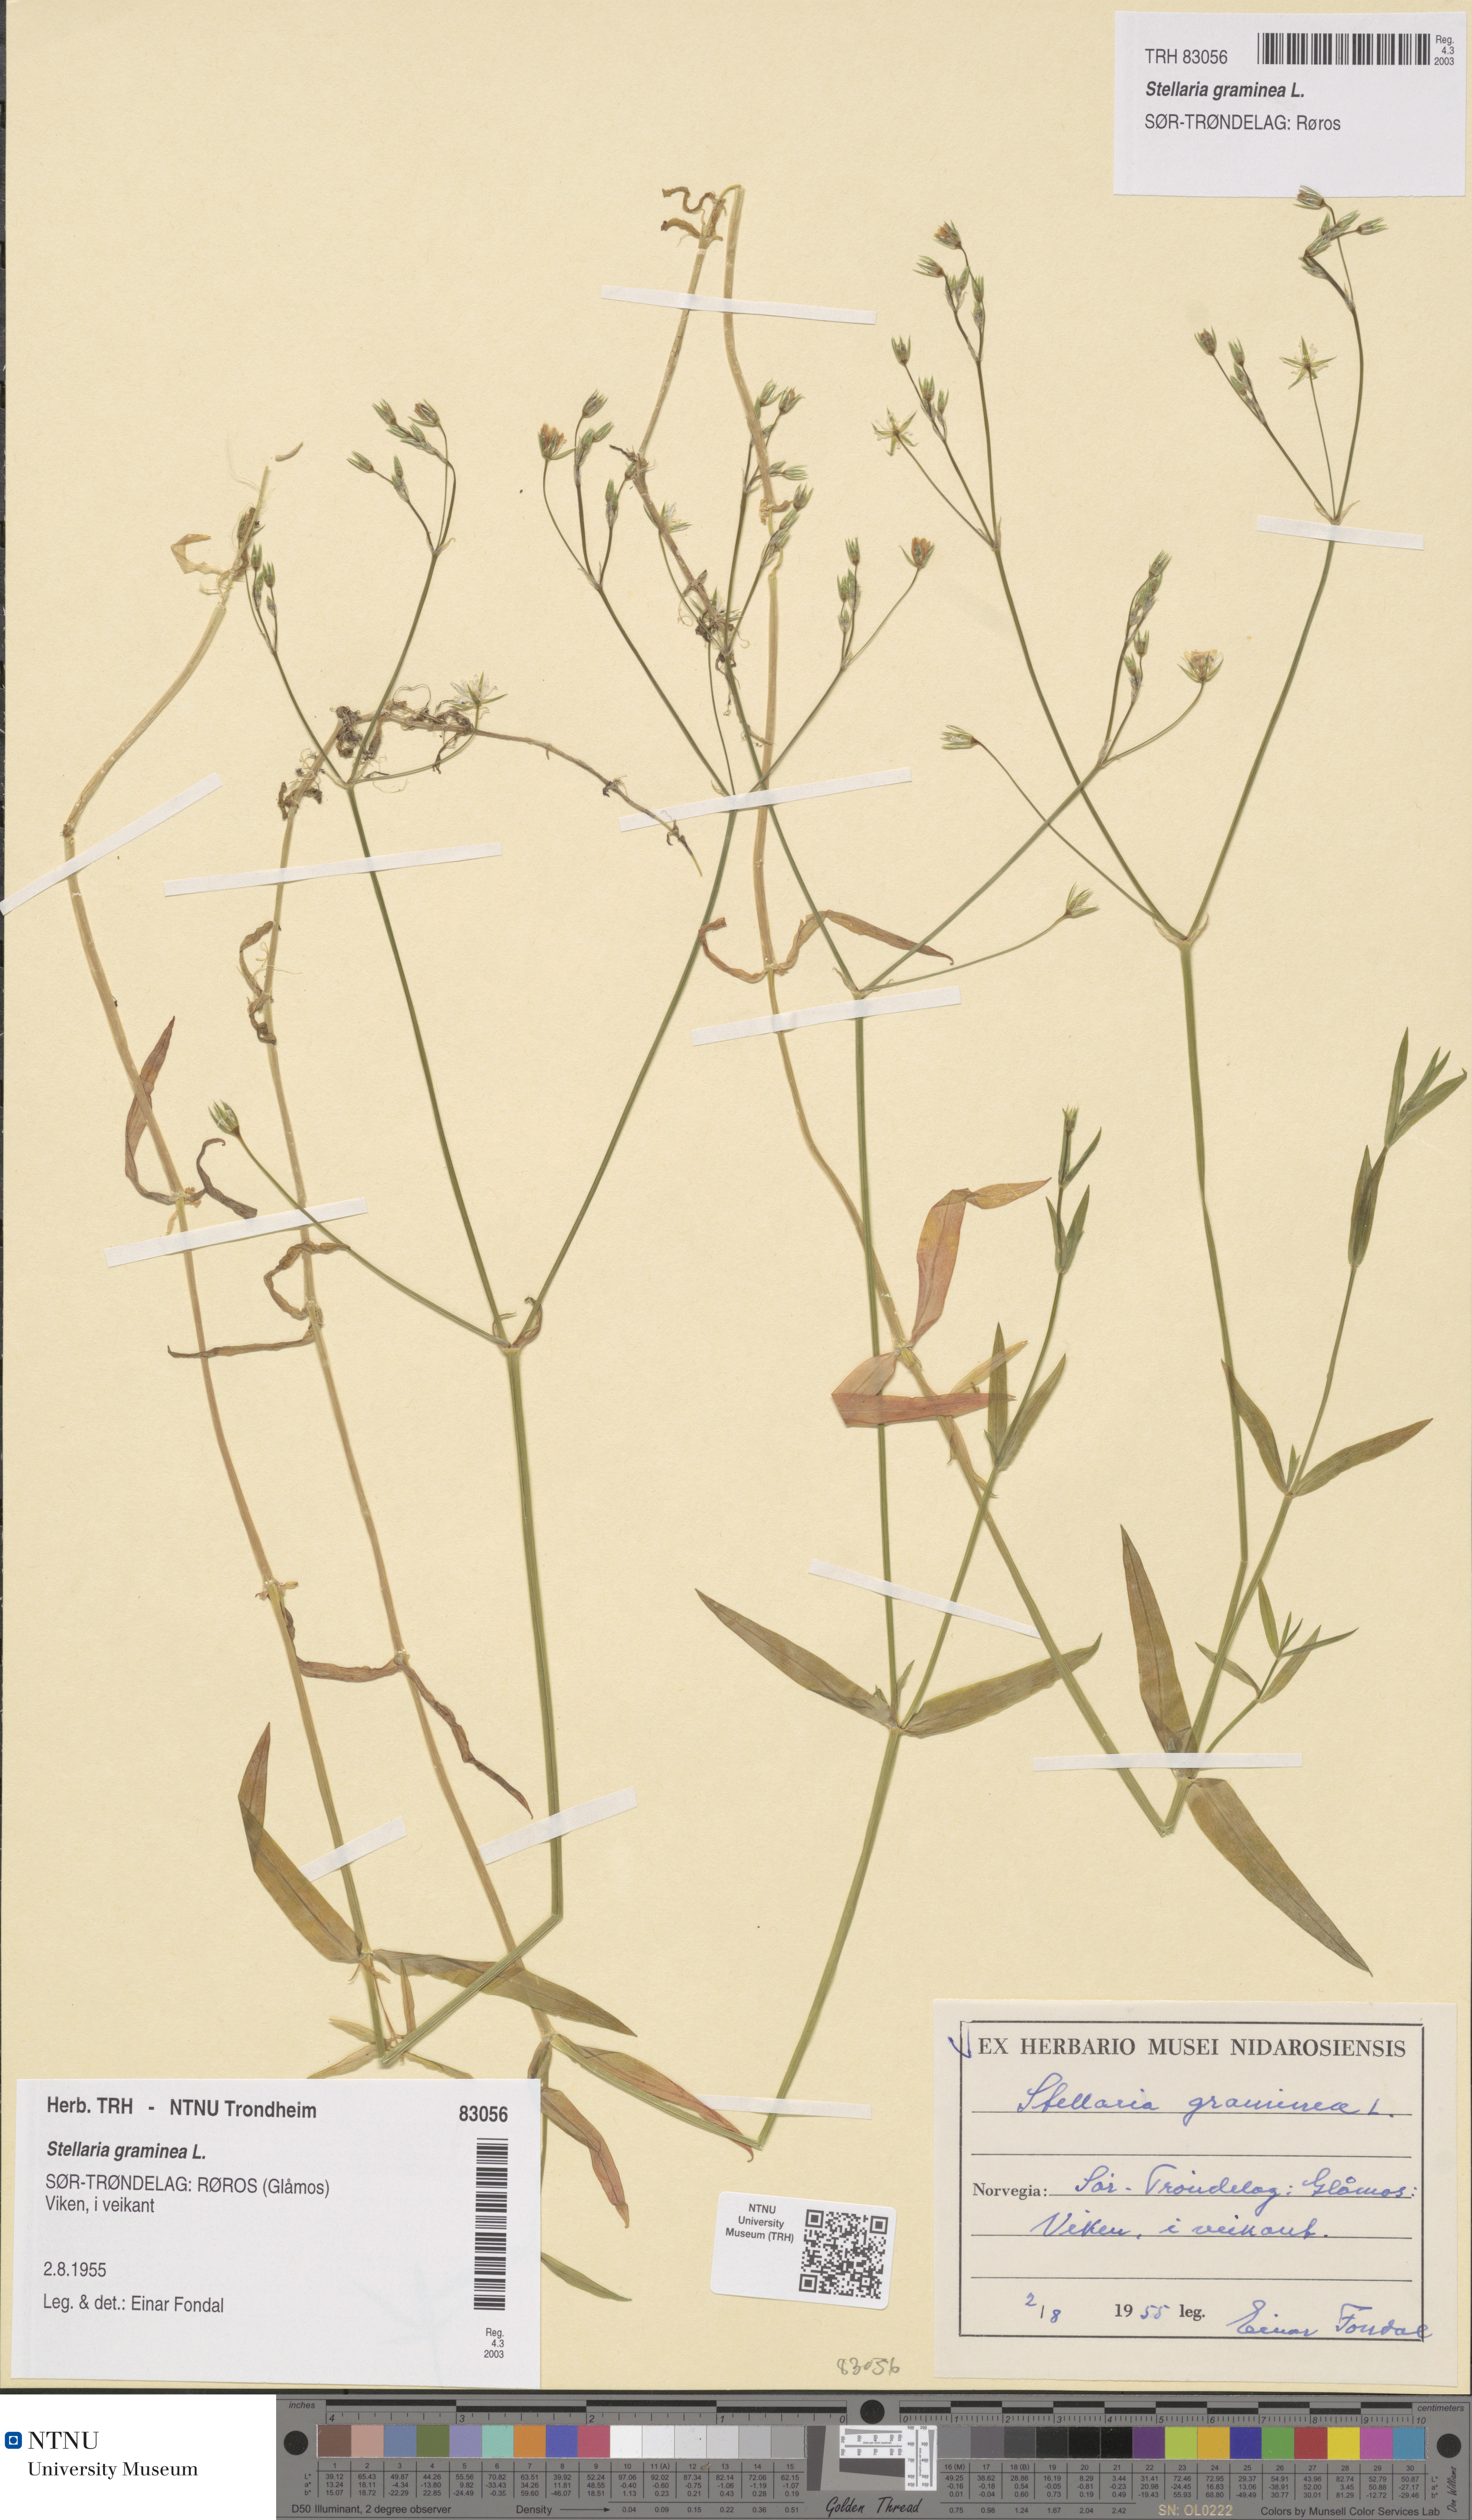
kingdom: Plantae
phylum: Tracheophyta
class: Magnoliopsida
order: Caryophyllales
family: Caryophyllaceae
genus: Stellaria
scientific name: Stellaria graminea
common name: Grass-like starwort
